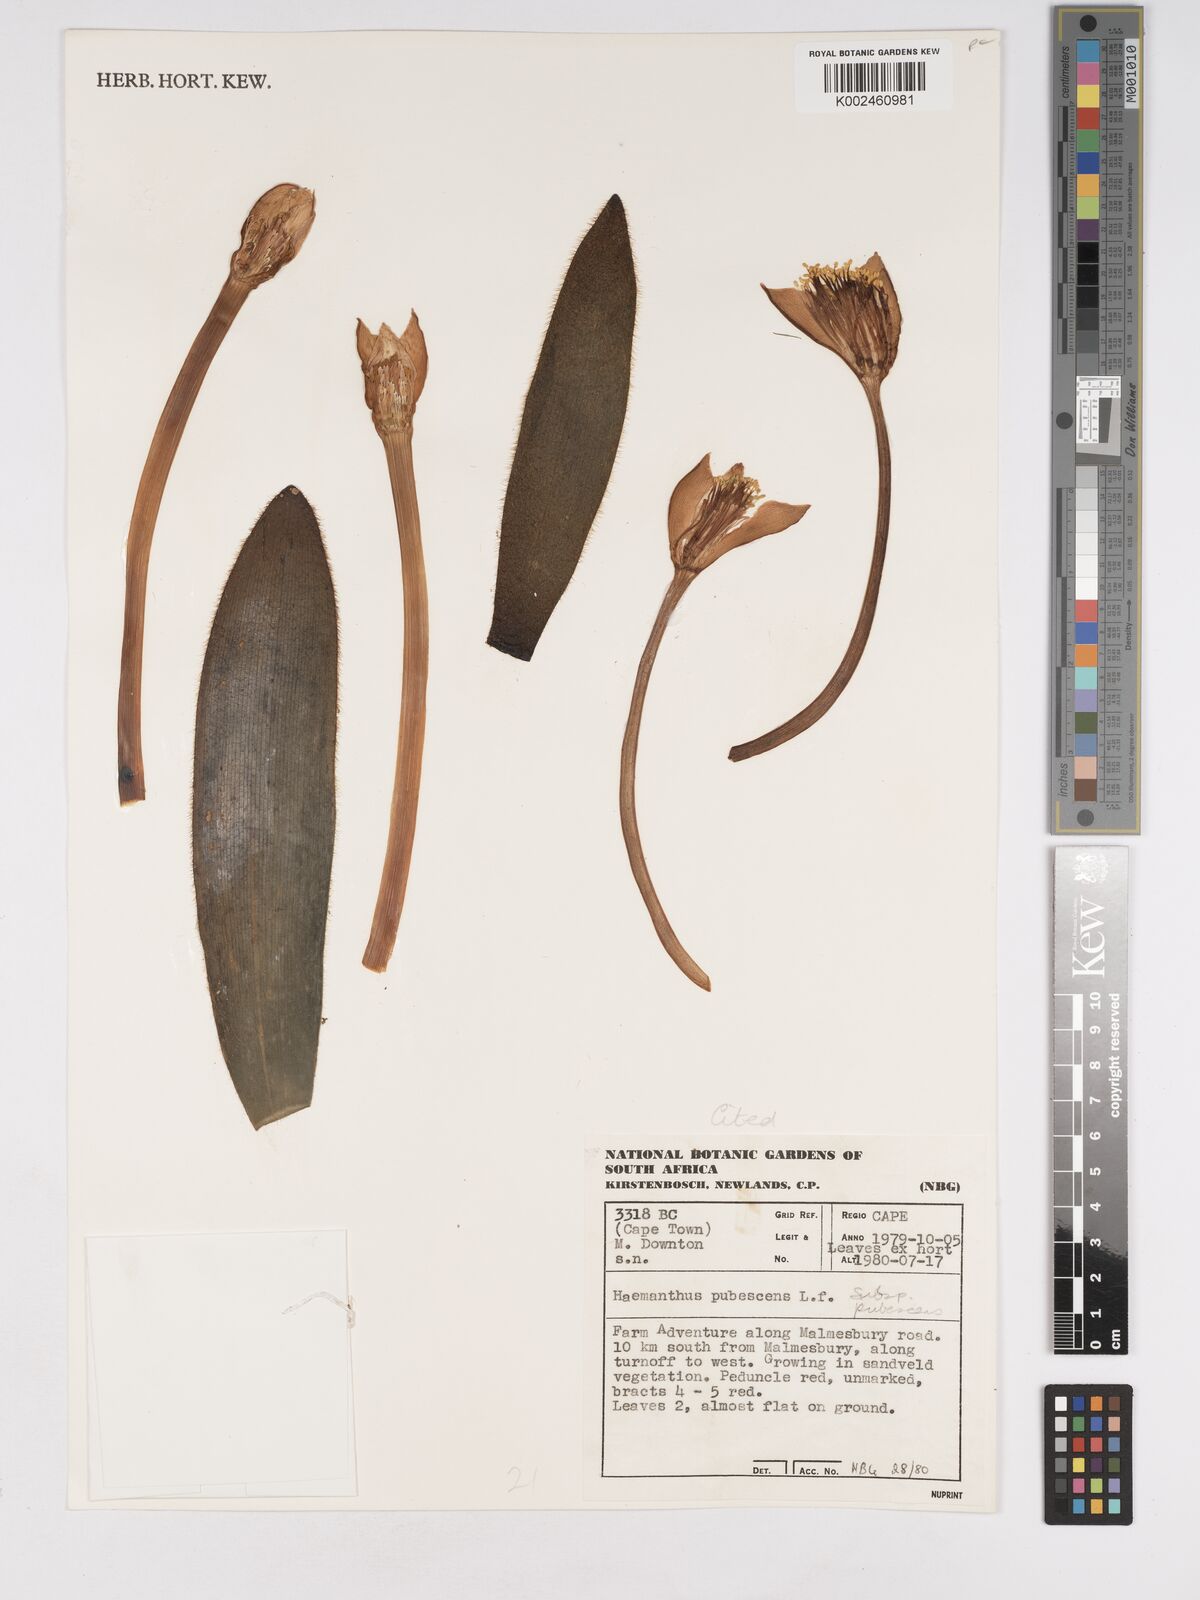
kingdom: Plantae
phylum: Tracheophyta
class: Liliopsida
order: Asparagales
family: Amaryllidaceae
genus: Haemanthus
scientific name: Haemanthus pubescens
